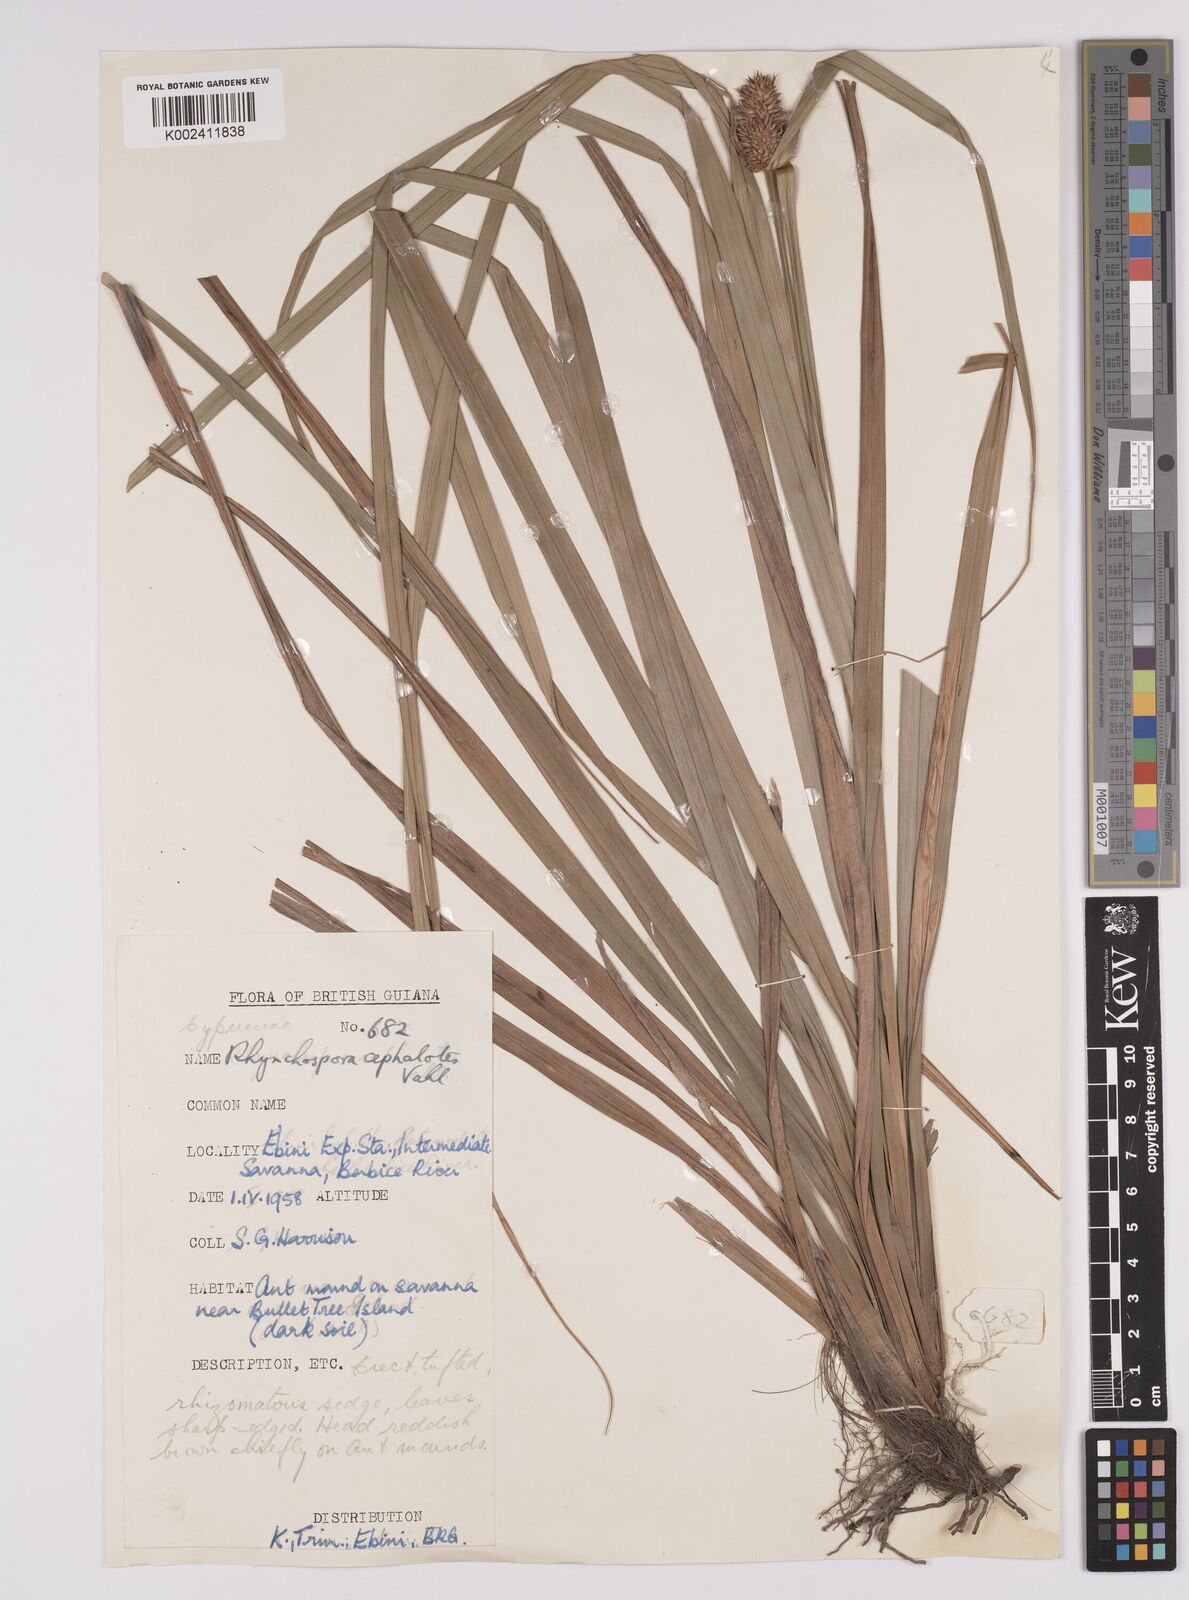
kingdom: Plantae
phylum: Tracheophyta
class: Liliopsida
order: Poales
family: Cyperaceae
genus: Rhynchospora
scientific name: Rhynchospora cephalotes
